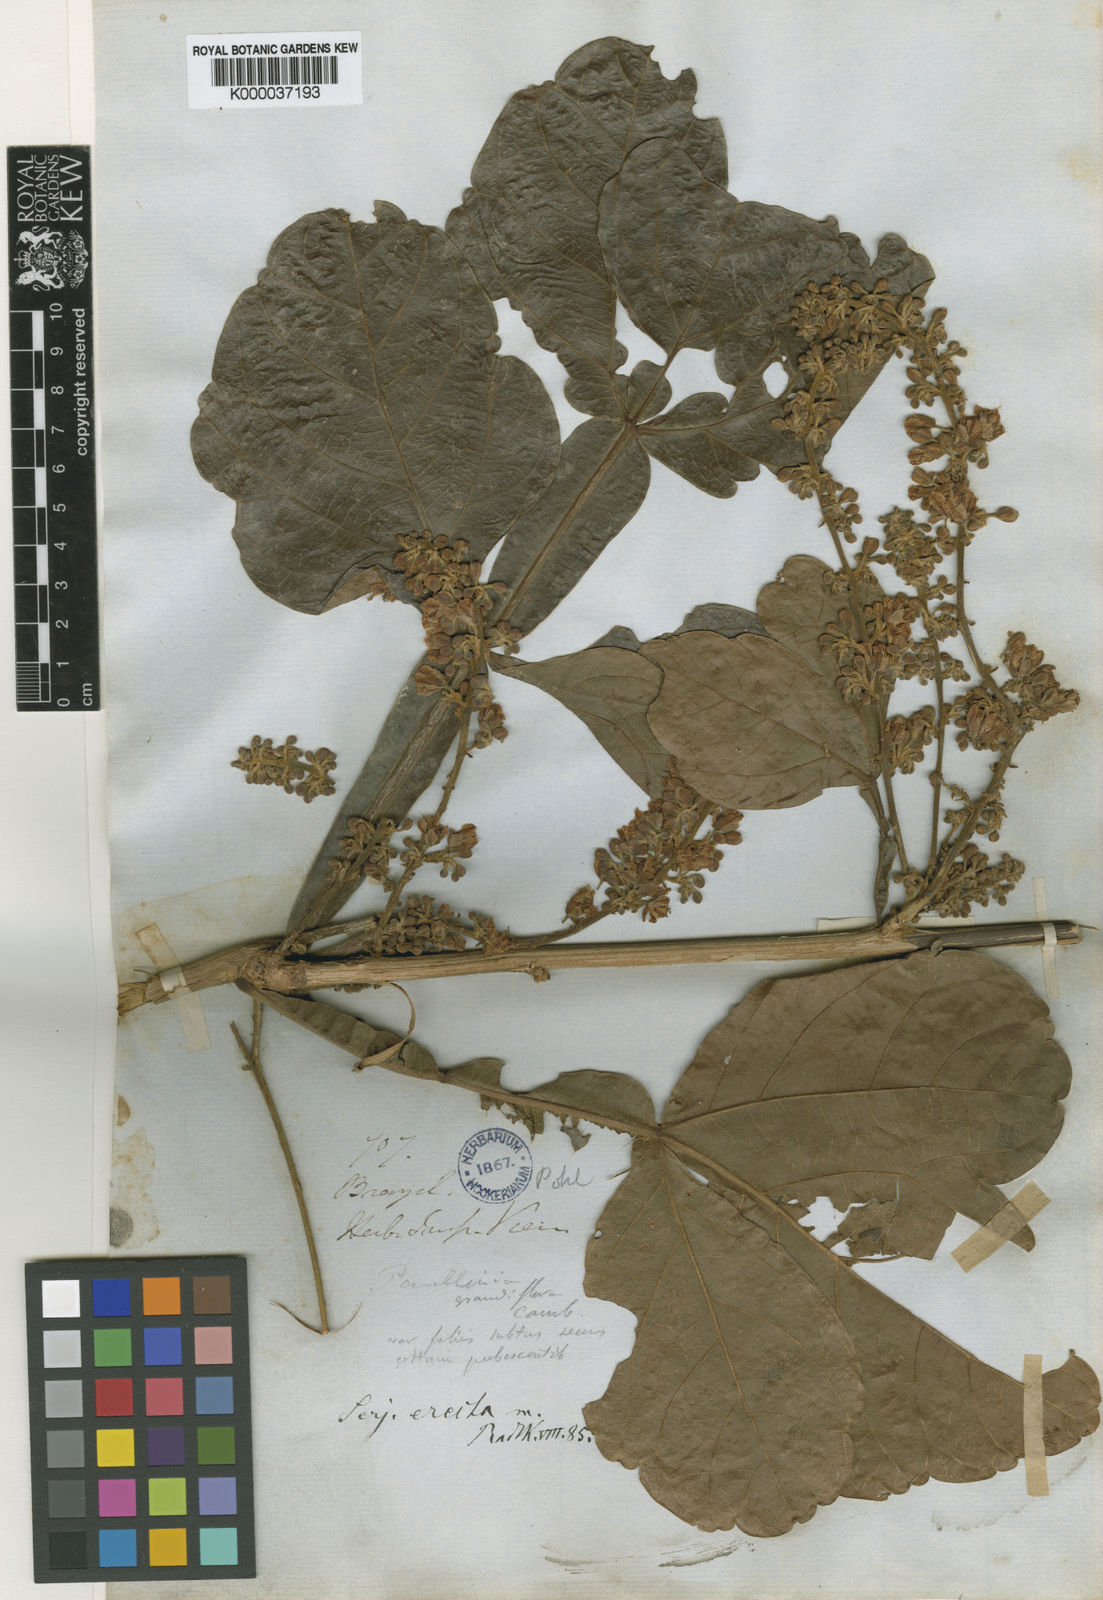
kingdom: Plantae
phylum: Tracheophyta
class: Magnoliopsida
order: Sapindales
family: Sapindaceae
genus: Serjania
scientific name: Serjania erecta
